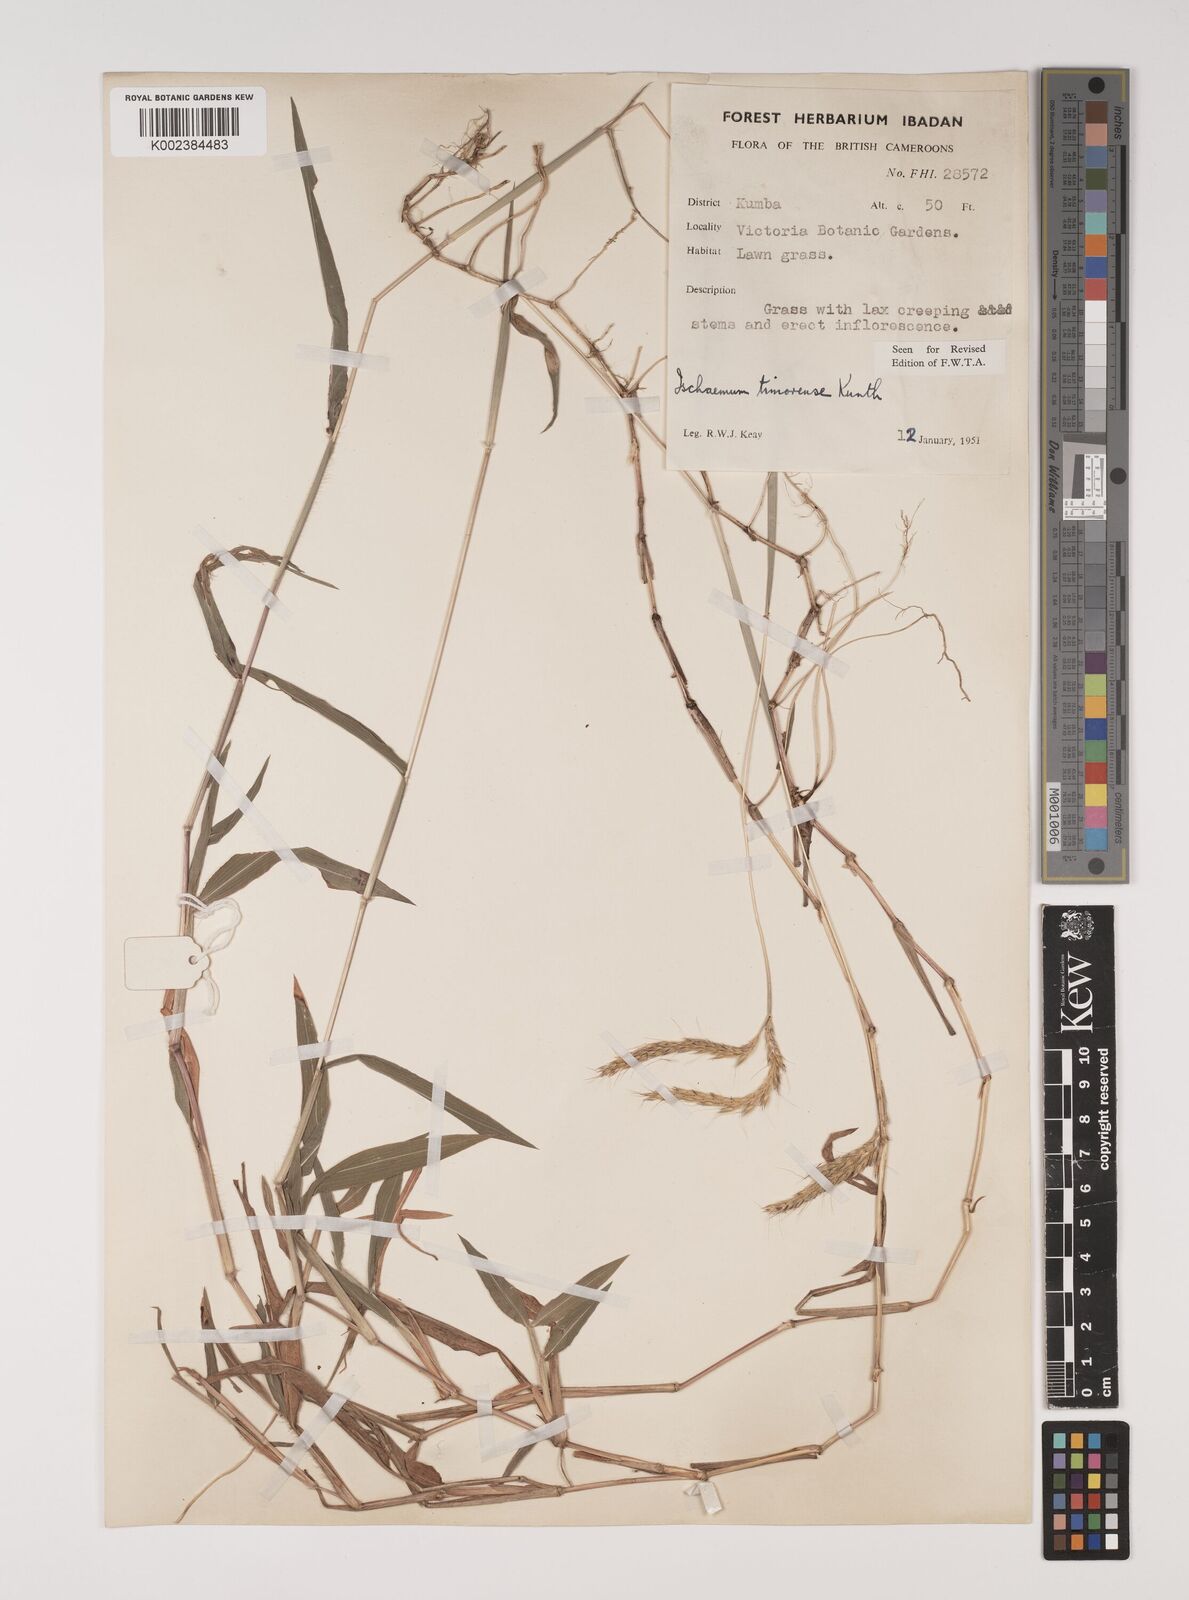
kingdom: Plantae
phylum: Tracheophyta
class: Liliopsida
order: Poales
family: Poaceae
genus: Ischaemum
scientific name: Ischaemum timorense
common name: Stalkleaf murainagrass
